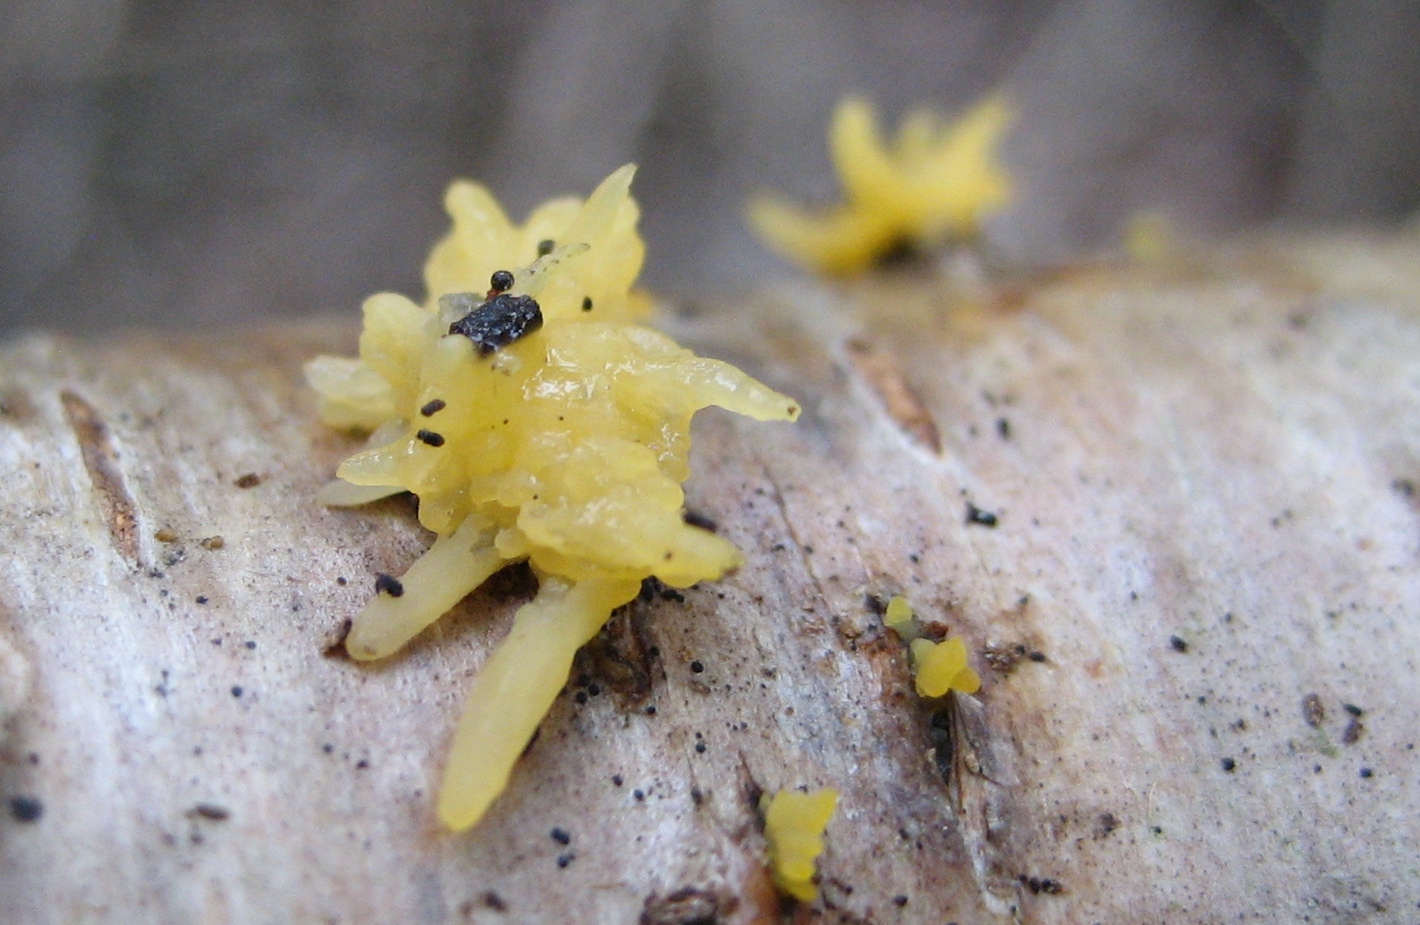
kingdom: Fungi
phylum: Basidiomycota
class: Dacrymycetes
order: Dacrymycetales
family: Dacrymycetaceae
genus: Calocera
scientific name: Calocera cornea
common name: liden guldgaffel
